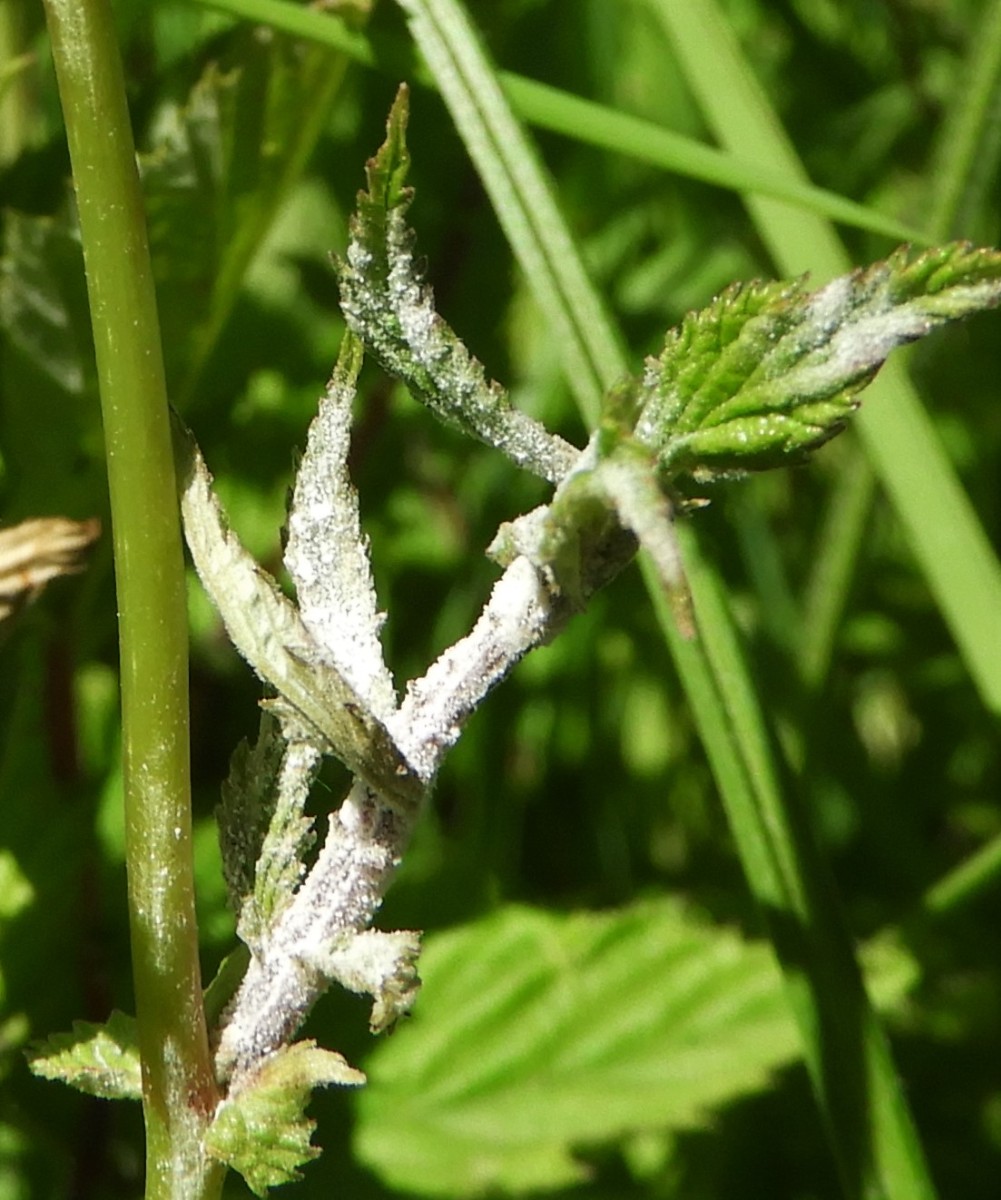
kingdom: Fungi
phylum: Ascomycota
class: Leotiomycetes
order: Helotiales
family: Erysiphaceae
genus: Podosphaera
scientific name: Podosphaera filipendulae
